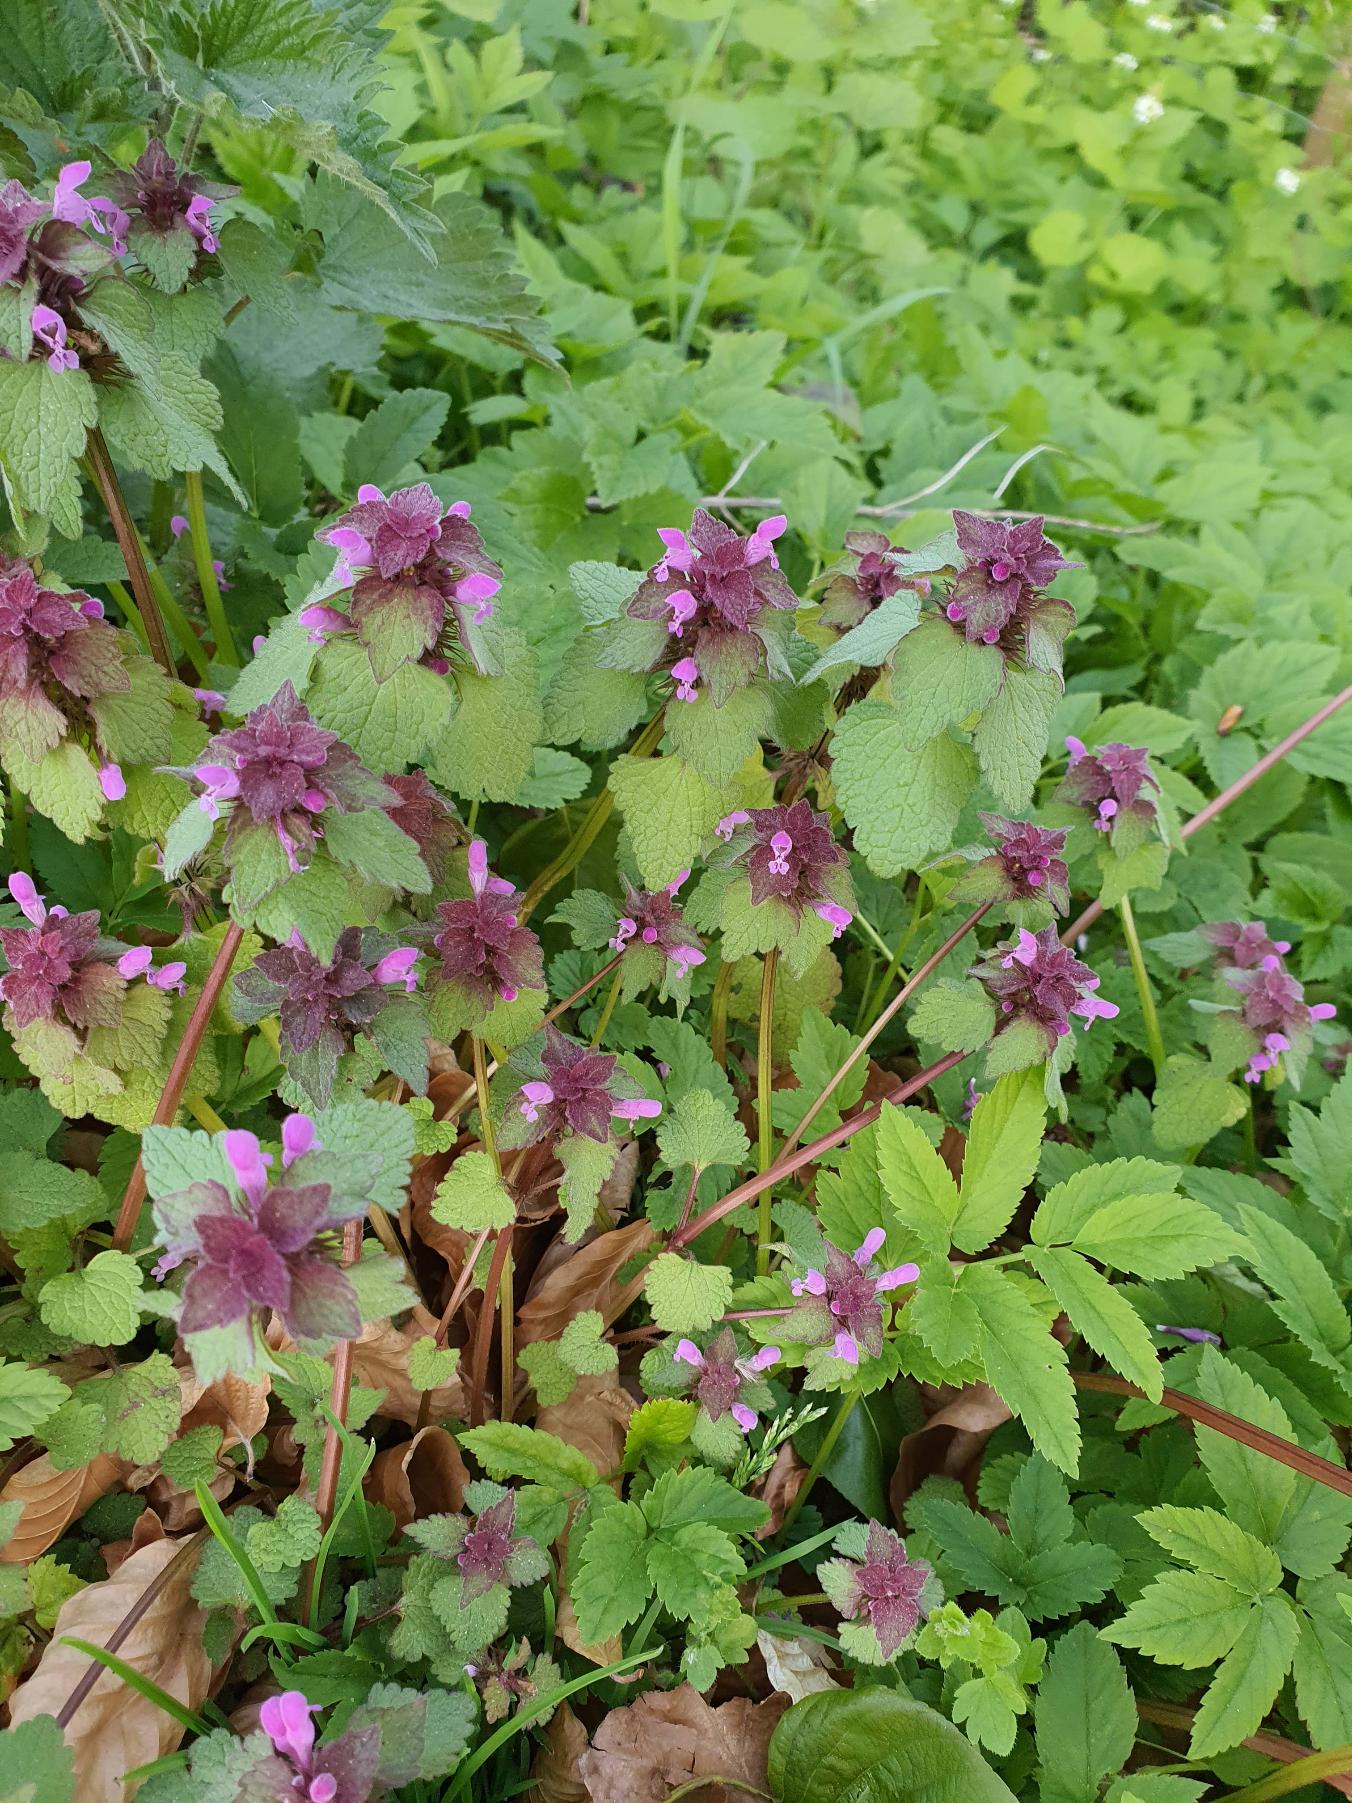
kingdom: Plantae
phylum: Tracheophyta
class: Magnoliopsida
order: Lamiales
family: Lamiaceae
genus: Lamium
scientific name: Lamium purpureum
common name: Rød tvetand
